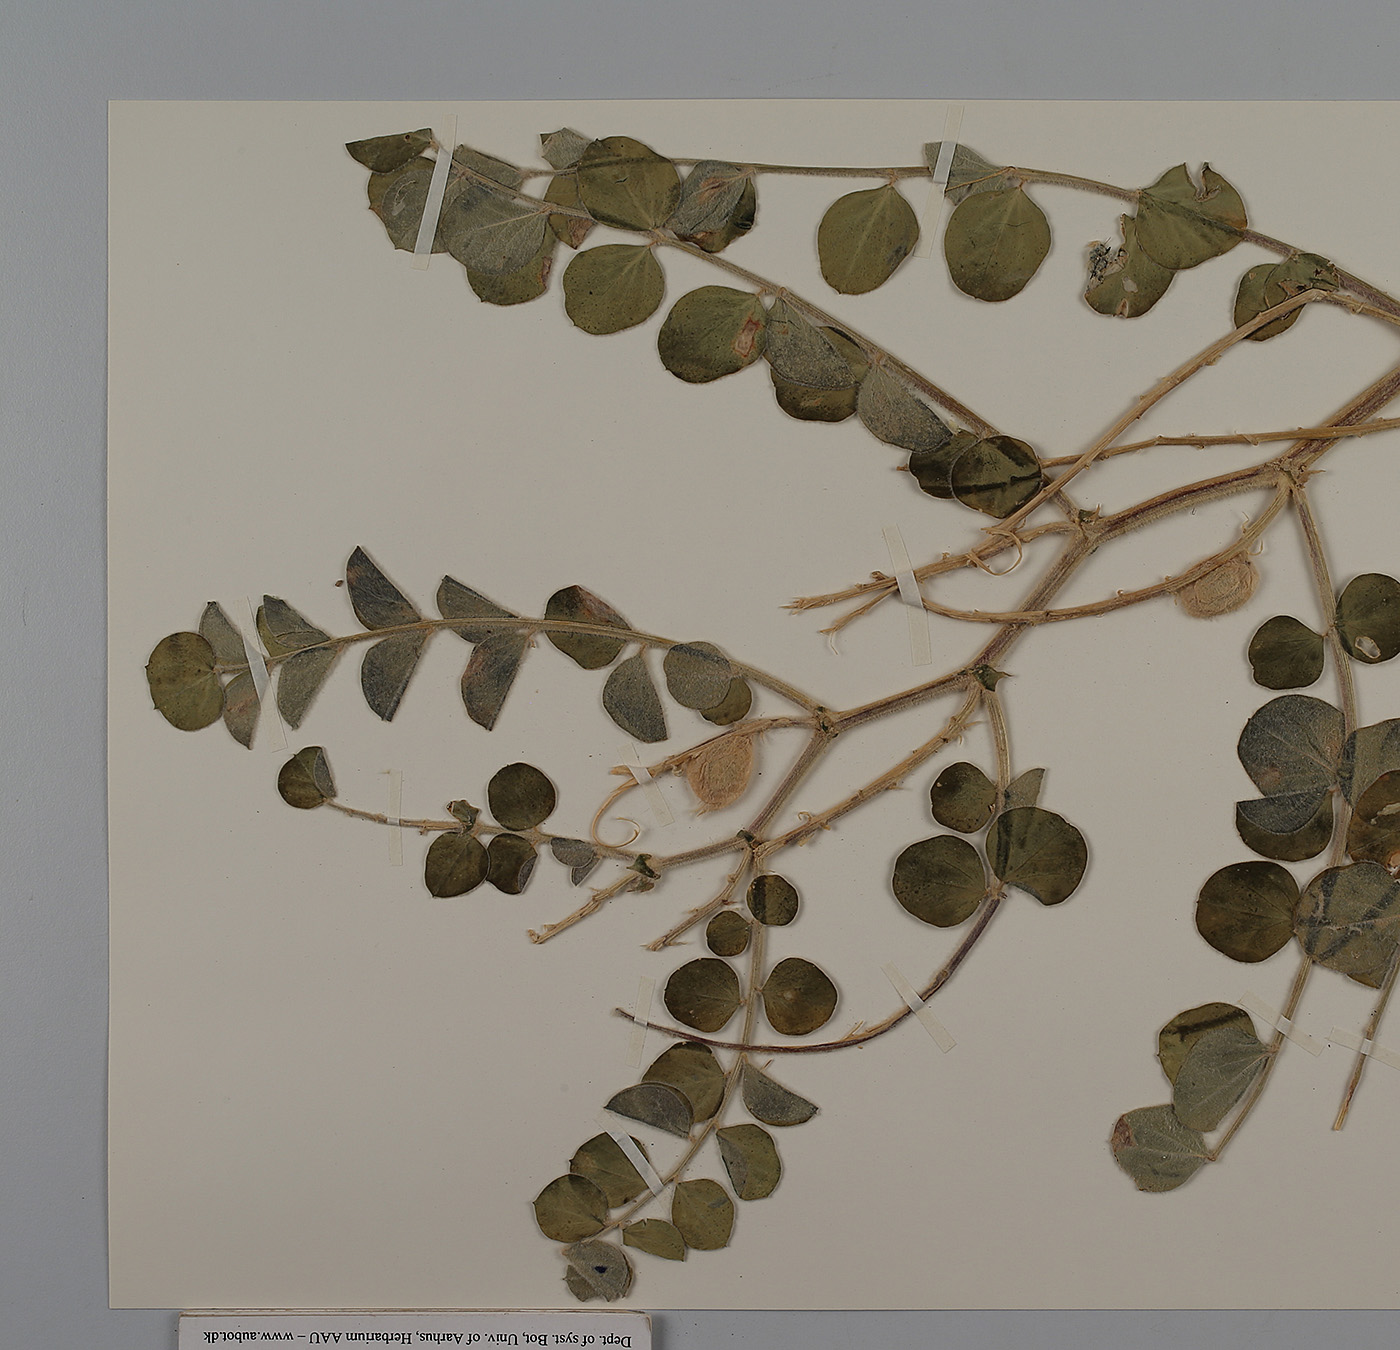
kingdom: Plantae
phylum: Tracheophyta
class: Magnoliopsida
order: Fabales
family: Fabaceae
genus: Astragalus
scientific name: Astragalus kahiricus
